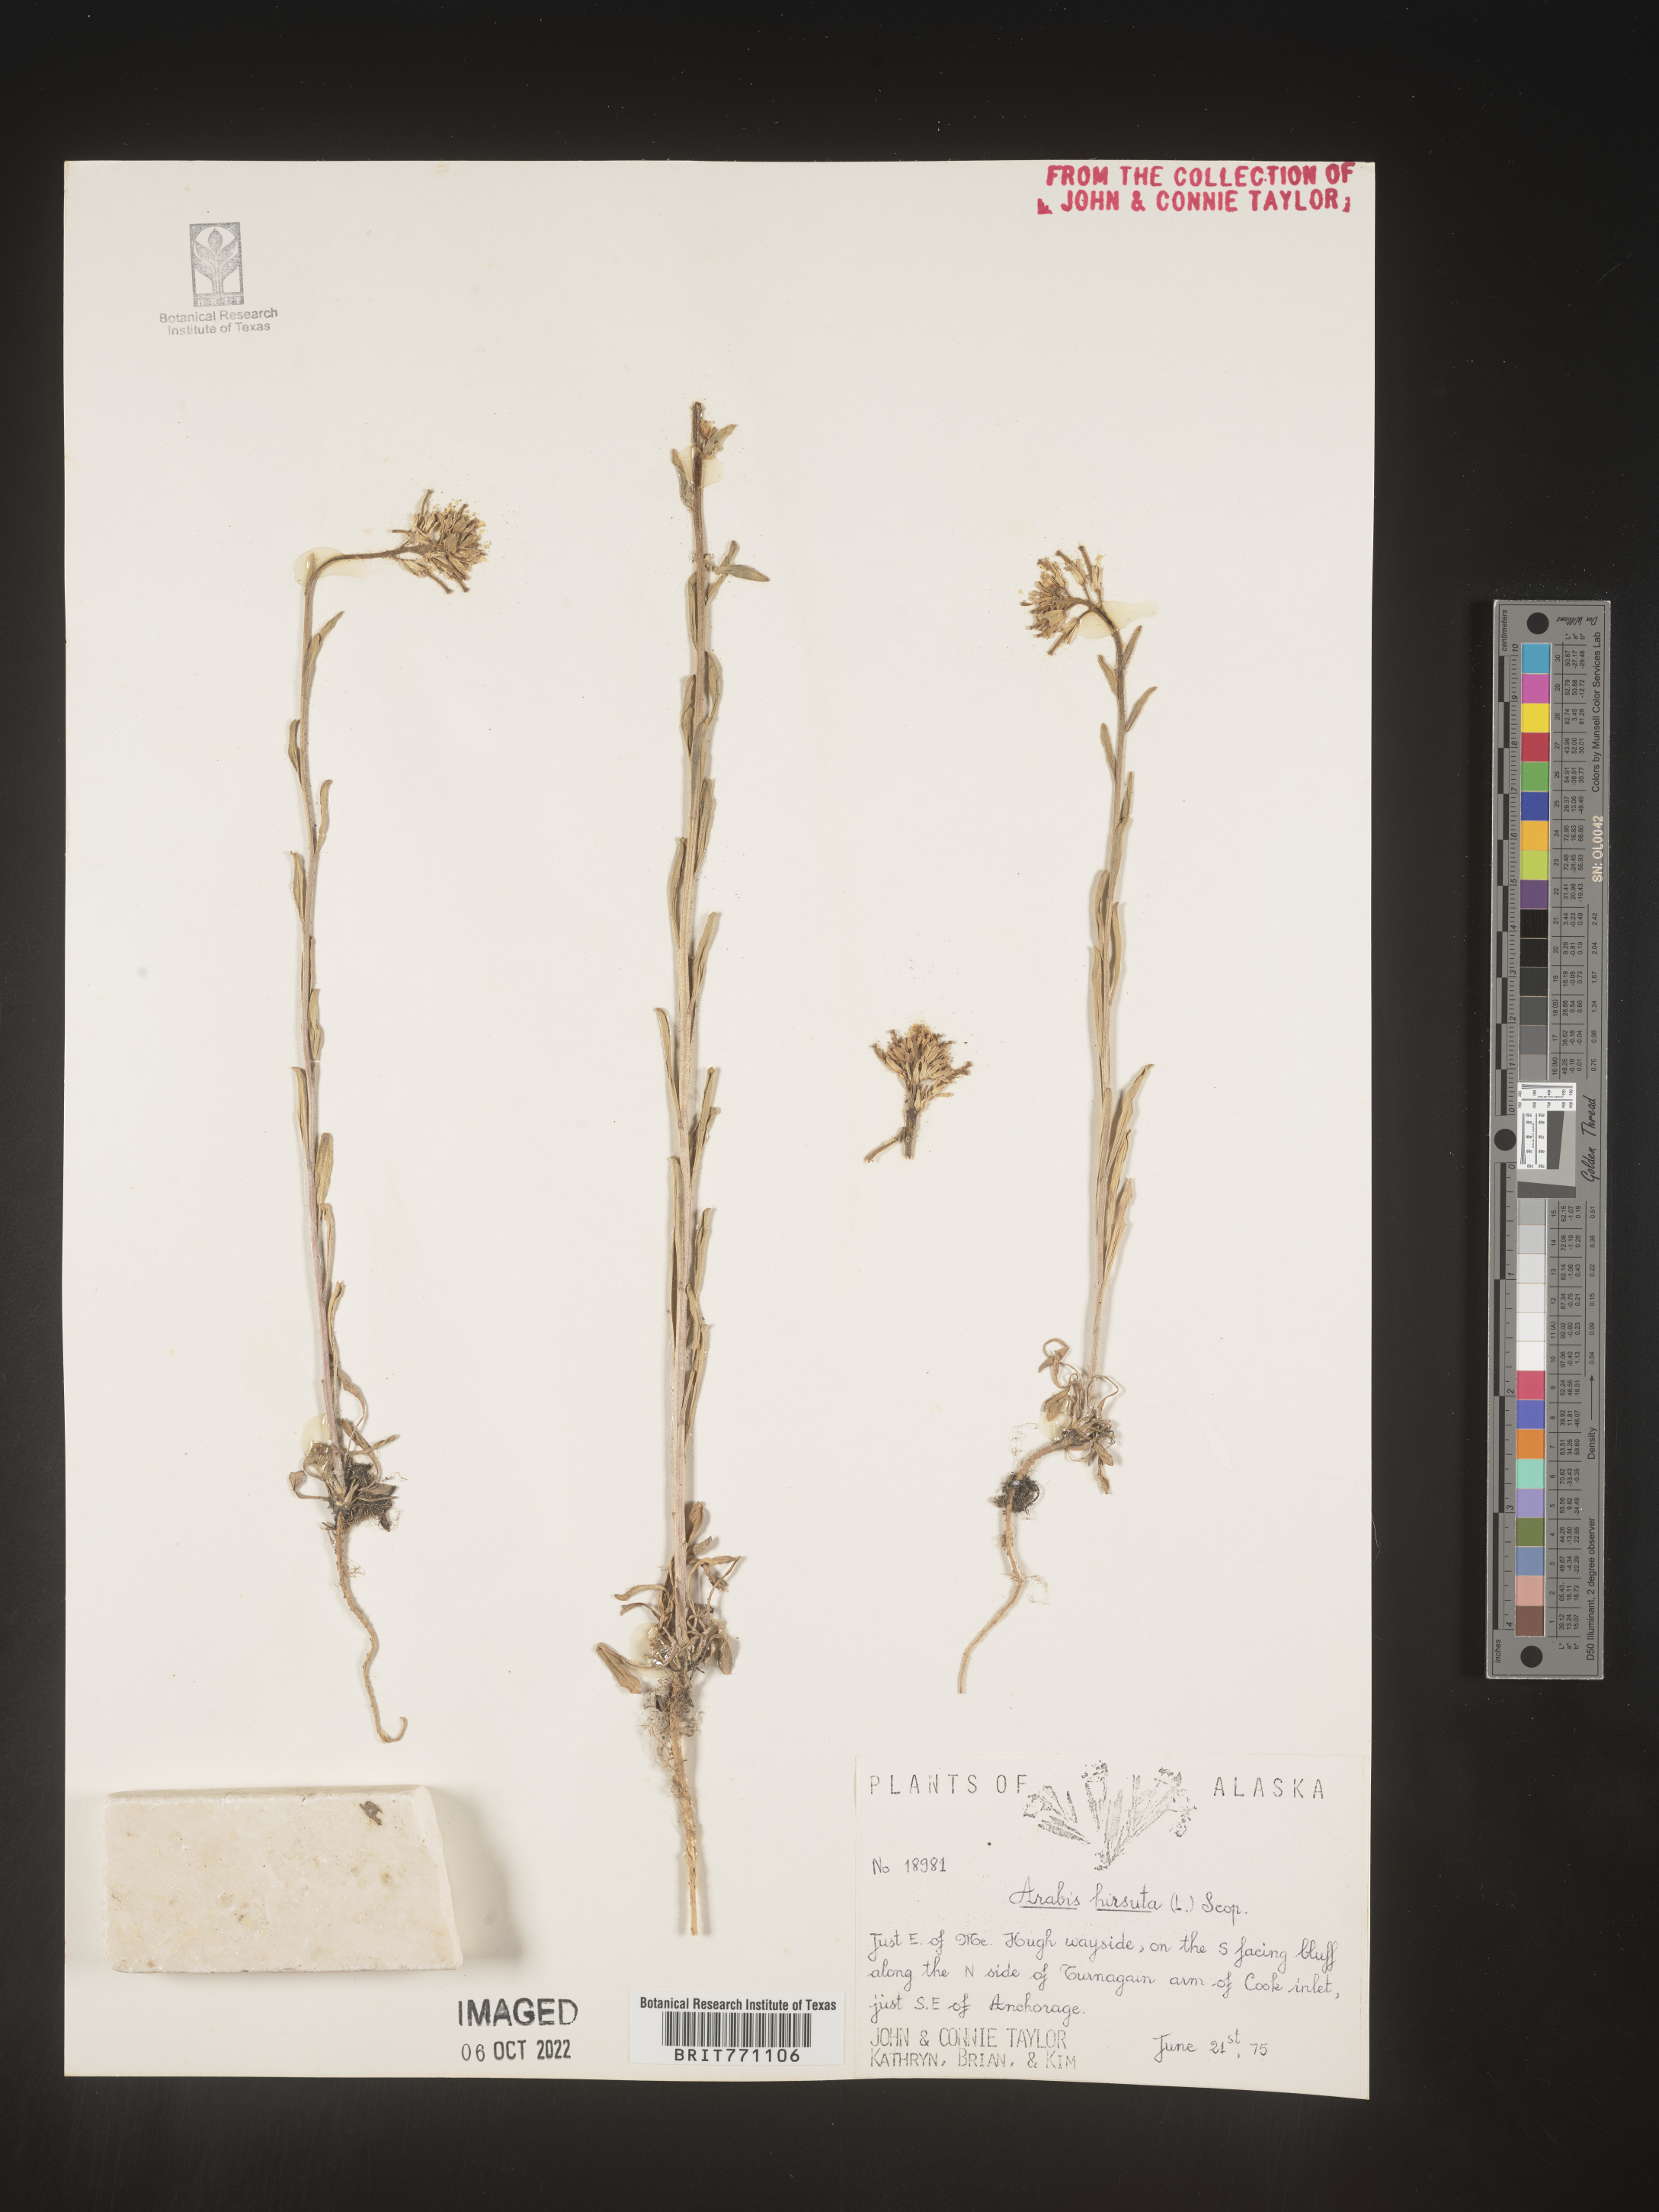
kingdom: Plantae
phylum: Tracheophyta
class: Magnoliopsida
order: Brassicales
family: Brassicaceae
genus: Arabis
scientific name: Arabis hirsuta
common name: Hairy rock-cress
